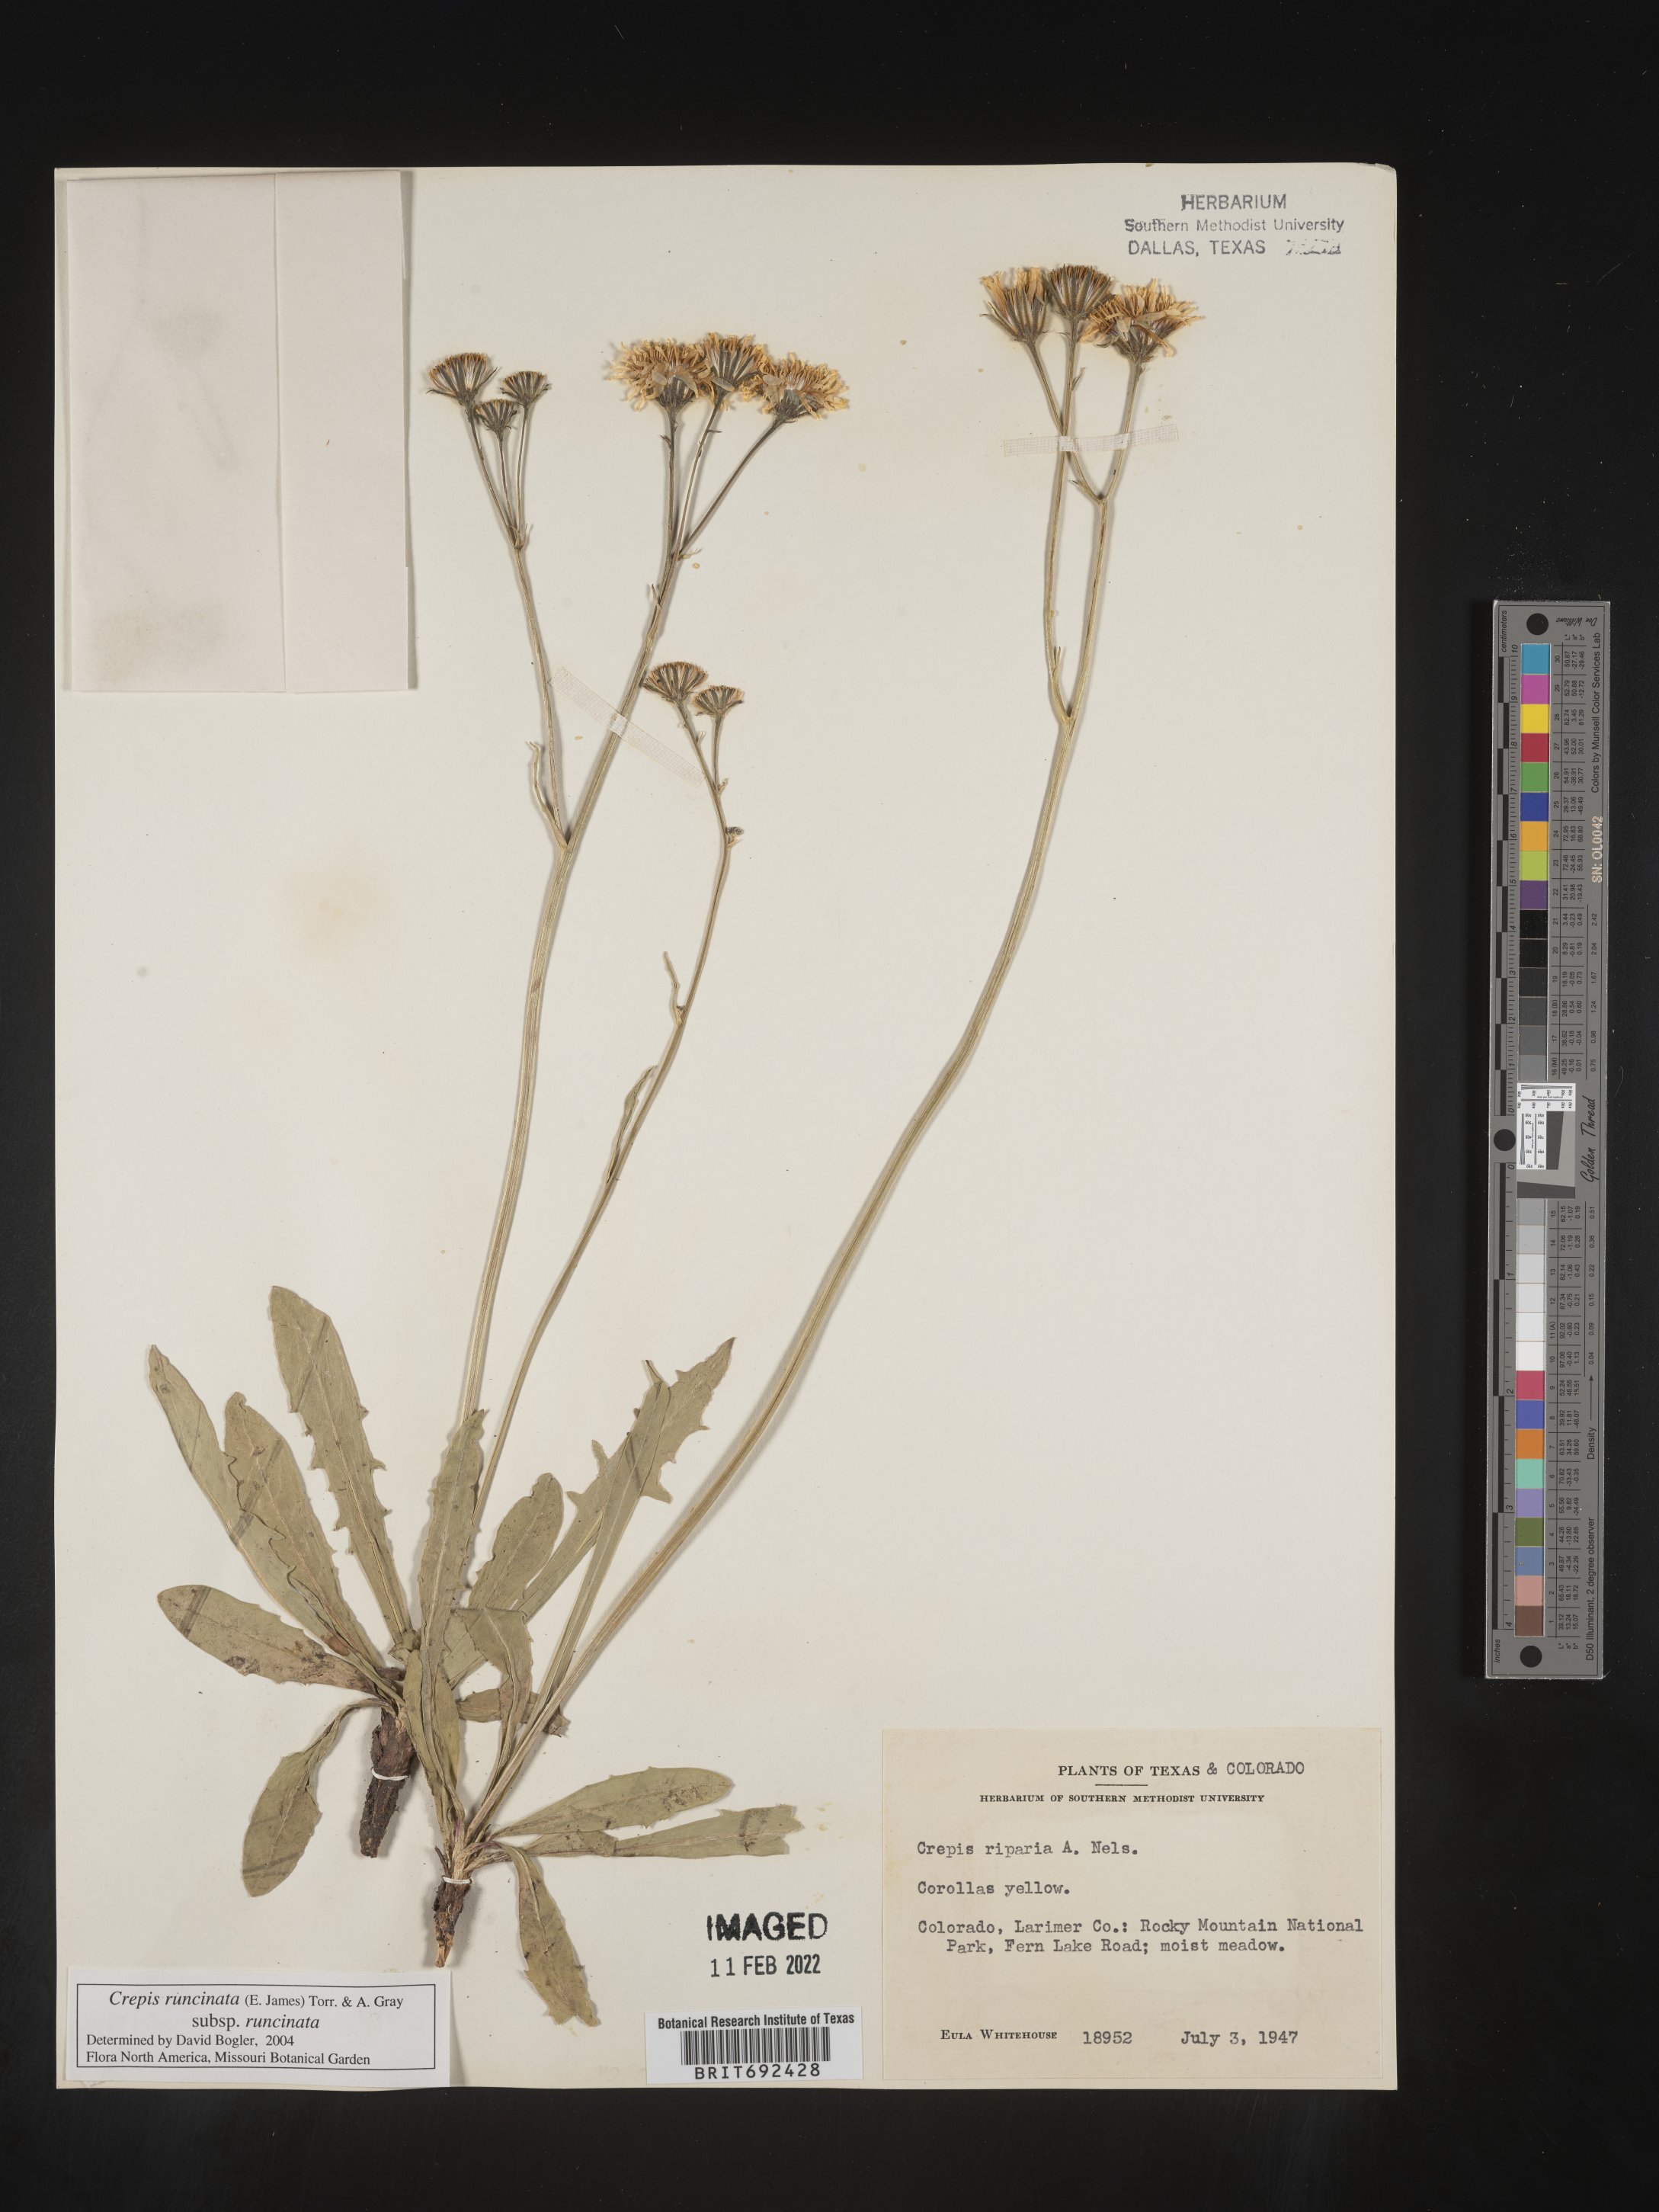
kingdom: Plantae
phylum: Tracheophyta
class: Magnoliopsida
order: Asterales
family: Asteraceae
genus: Crepis
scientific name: Crepis
